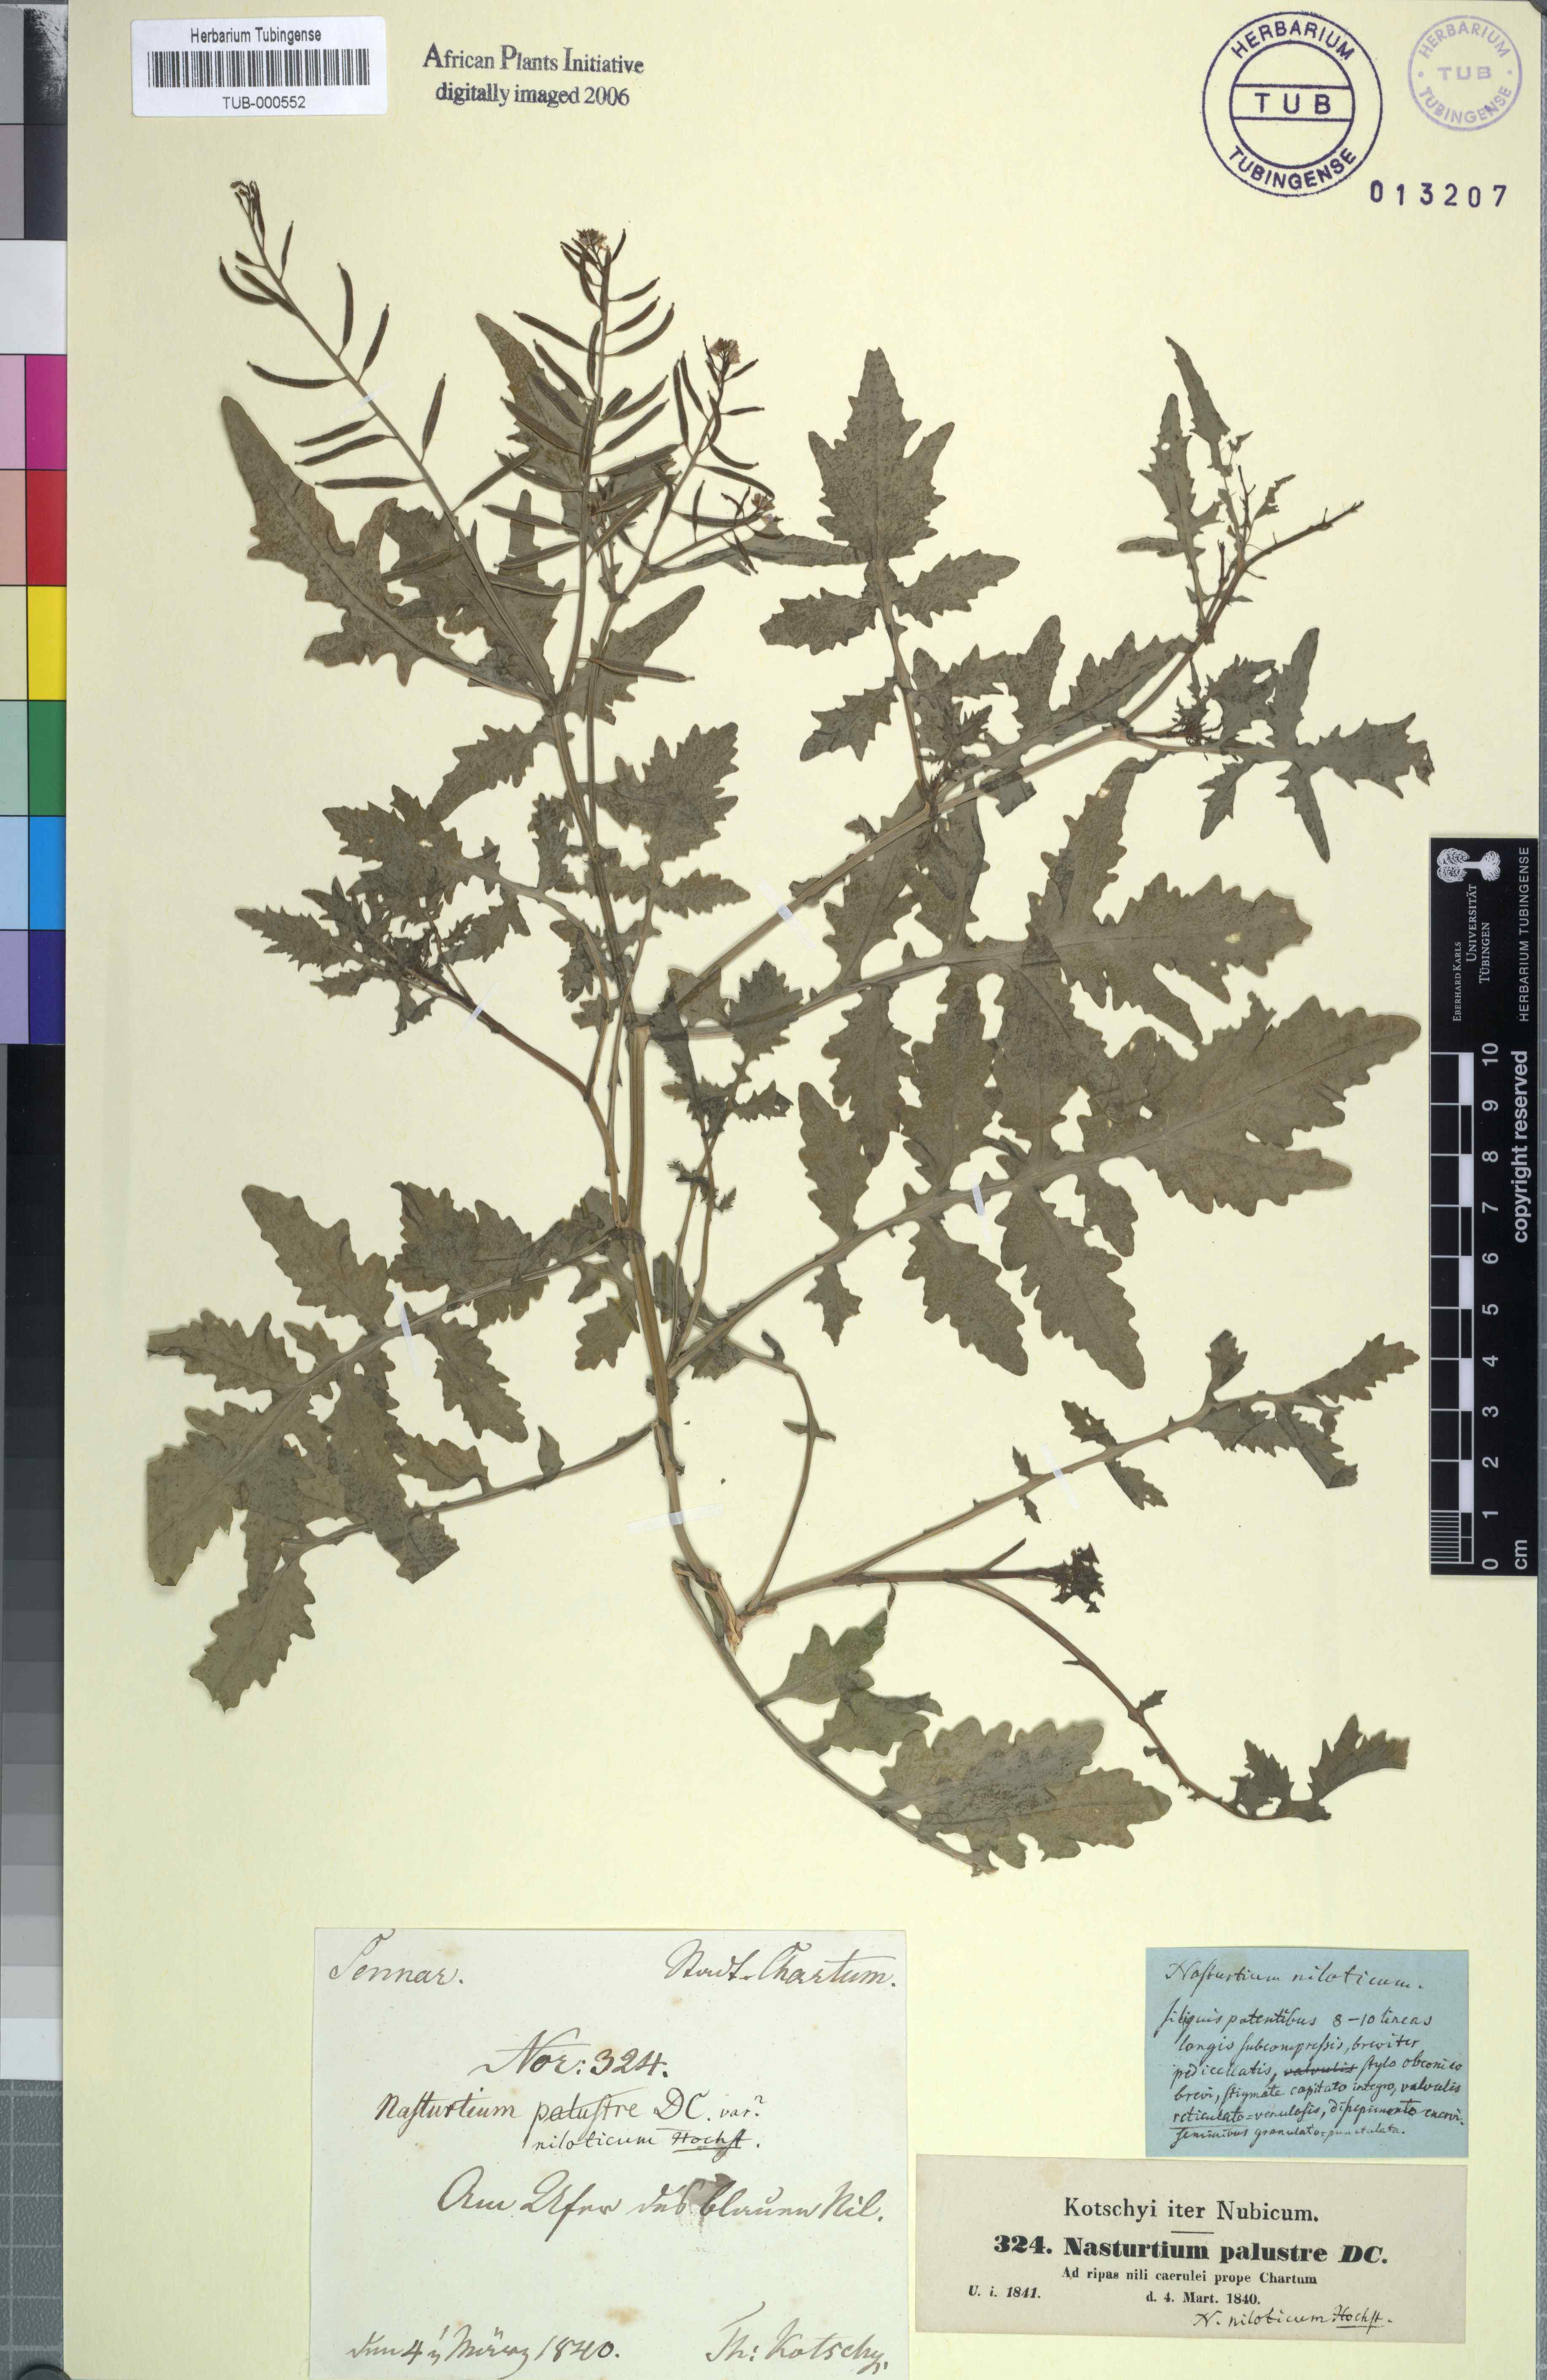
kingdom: Plantae
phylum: Tracheophyta
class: Magnoliopsida
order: Brassicales
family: Brassicaceae
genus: Rorippa
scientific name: Rorippa micrantha
